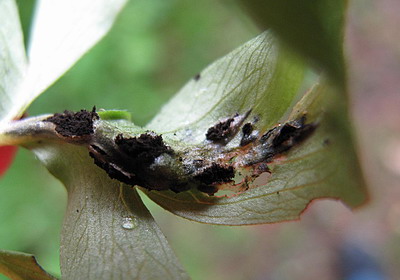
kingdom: Fungi
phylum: Basidiomycota
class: Ustilaginomycetes
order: Urocystidales
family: Urocystidaceae
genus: Urocystis
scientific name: Urocystis anemones
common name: anemone-brand
